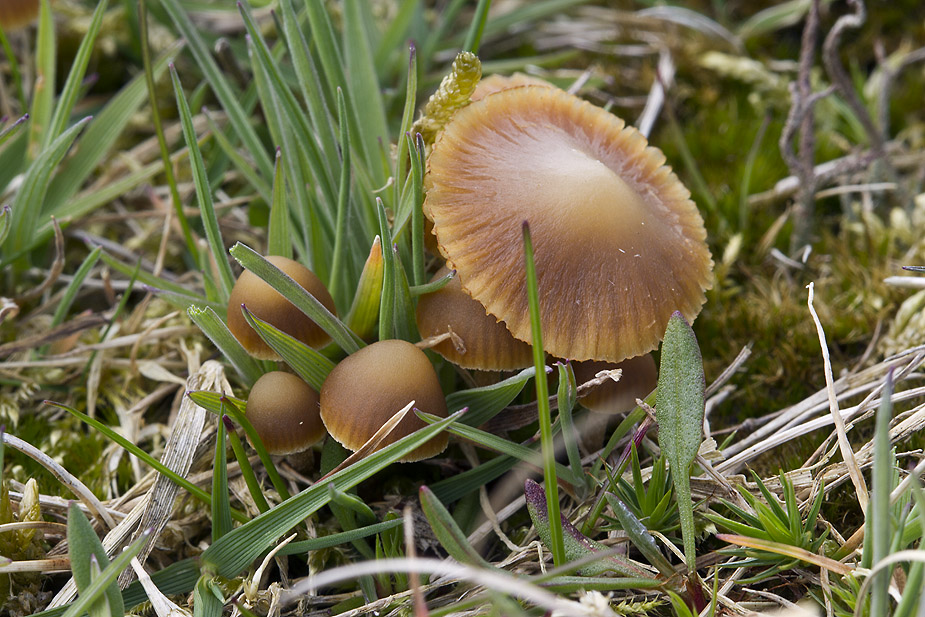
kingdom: Fungi
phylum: Basidiomycota
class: Agaricomycetes
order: Agaricales
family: Hymenogastraceae
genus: Galerina
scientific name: Galerina mniophila
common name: olivengul hjelmhat
